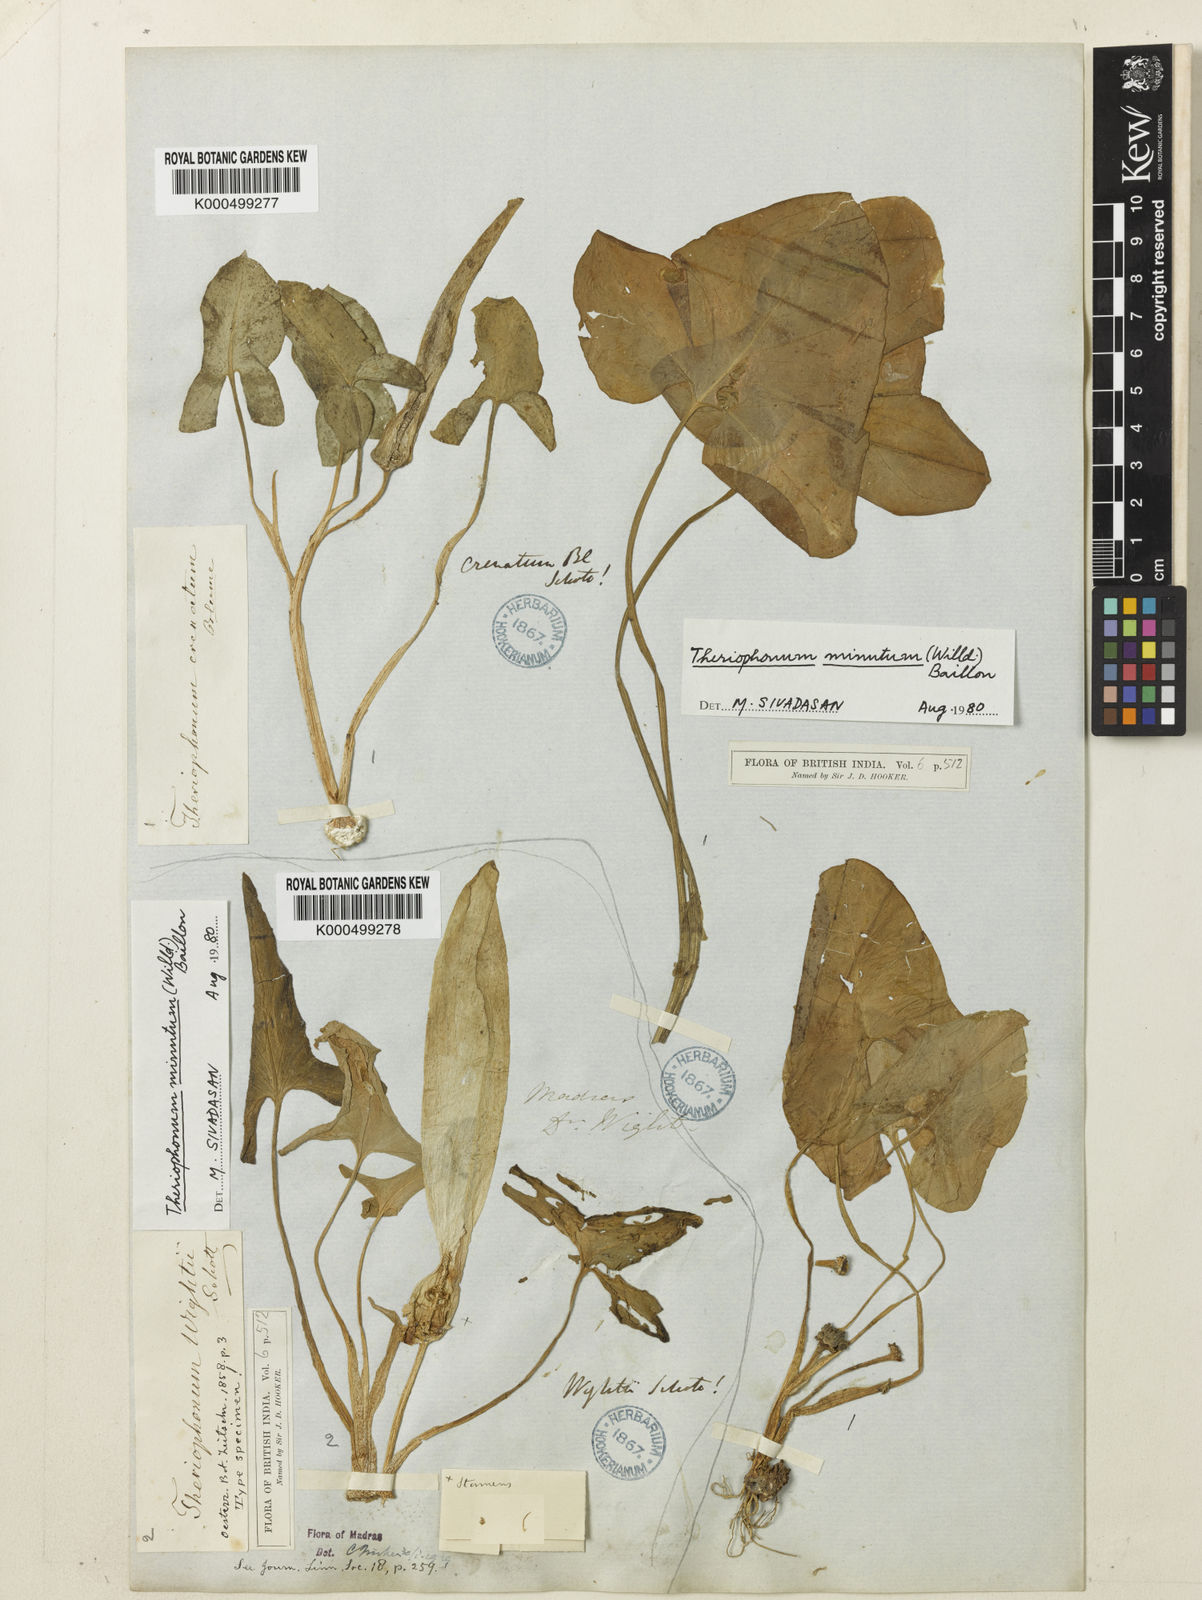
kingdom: Plantae
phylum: Tracheophyta
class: Liliopsida
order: Alismatales
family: Araceae
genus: Theriophonum
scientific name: Theriophonum minutum
